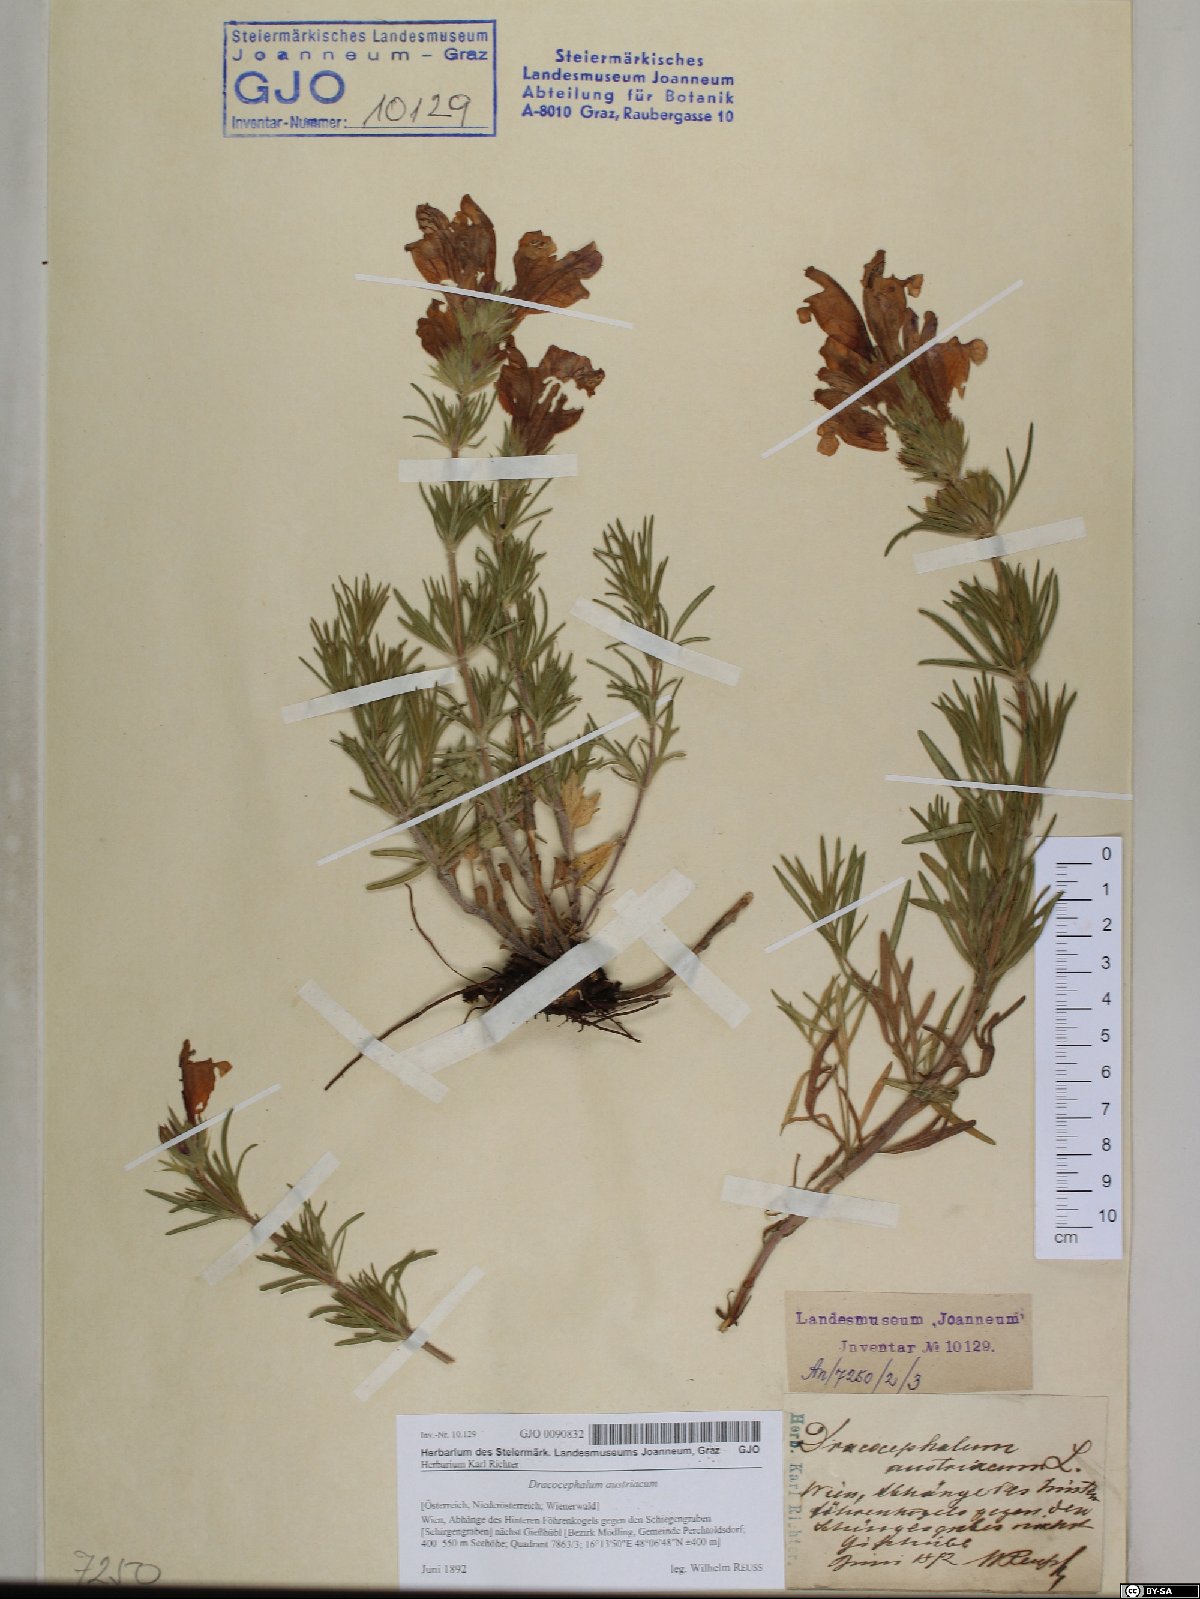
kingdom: Plantae
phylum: Tracheophyta
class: Magnoliopsida
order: Lamiales
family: Lamiaceae
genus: Dracocephalum
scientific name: Dracocephalum austriacum
